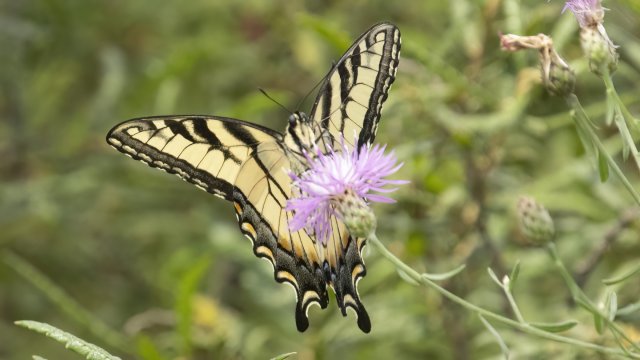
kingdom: Animalia
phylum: Arthropoda
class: Insecta
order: Lepidoptera
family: Papilionidae
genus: Pterourus
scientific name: Pterourus glaucus
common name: Eastern Tiger Swallowtail
